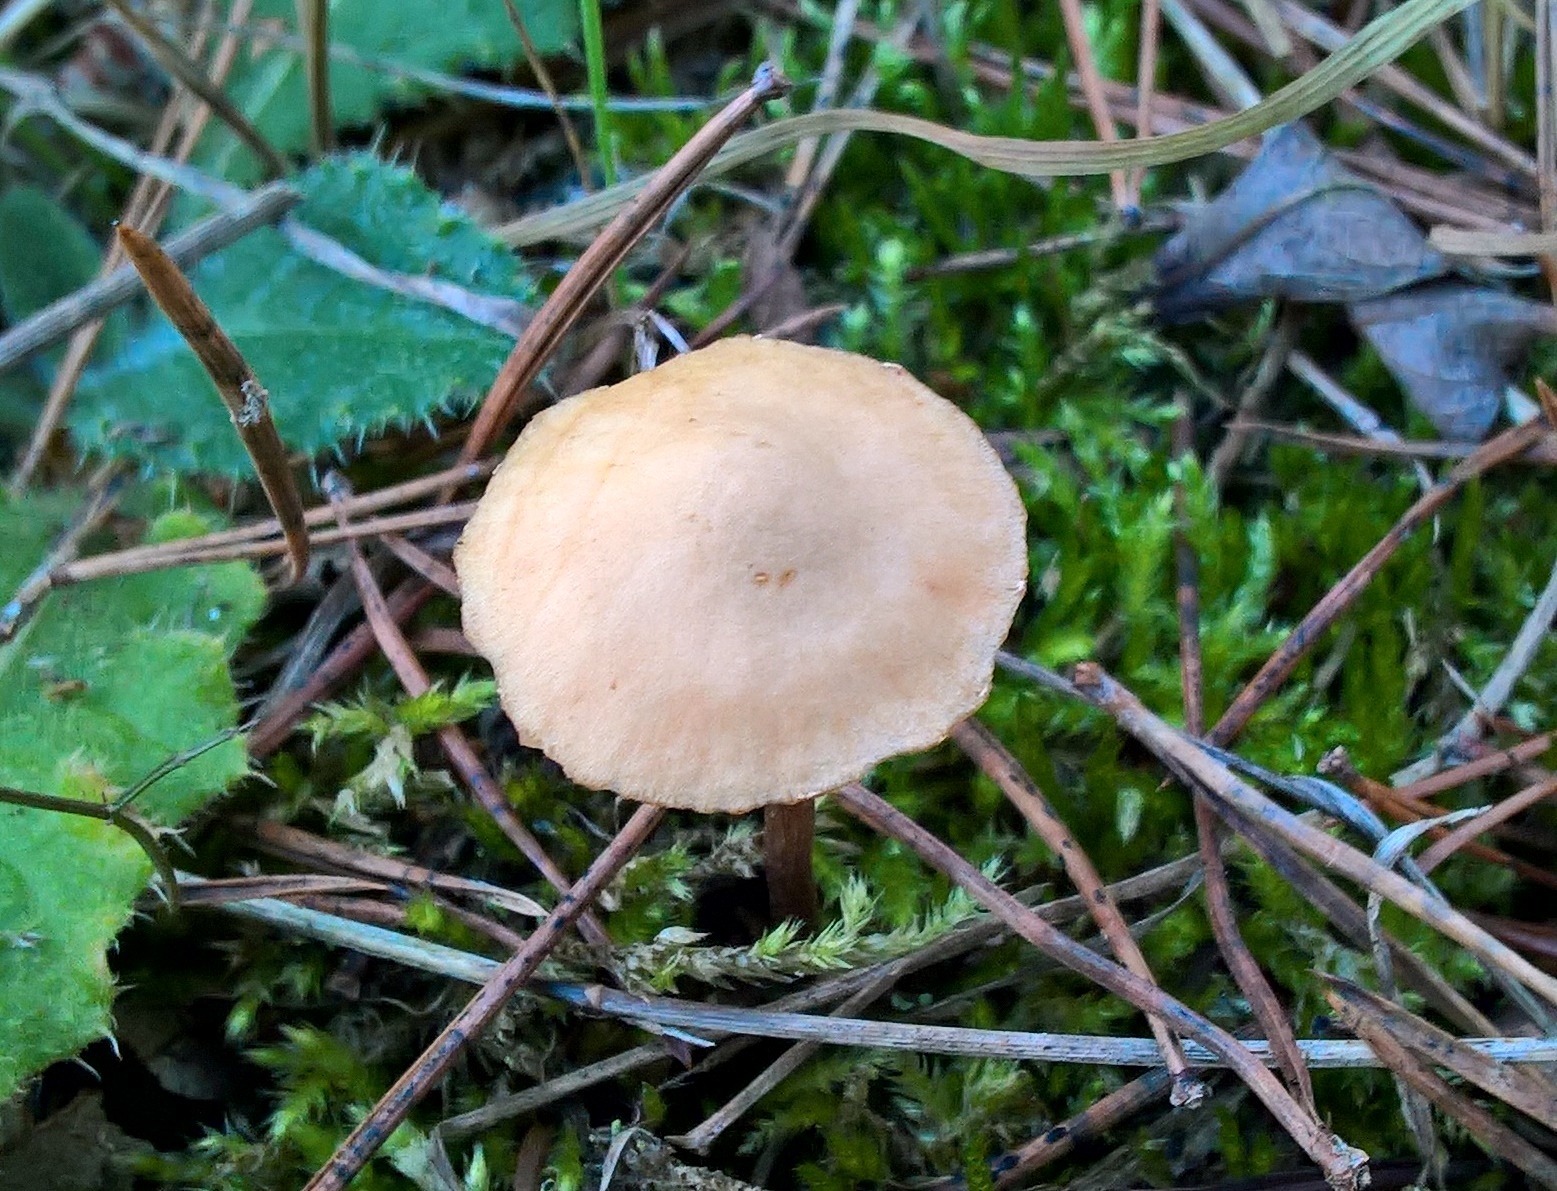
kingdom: Fungi
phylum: Basidiomycota
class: Agaricomycetes
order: Agaricales
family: Hymenogastraceae
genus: Galerina
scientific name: Galerina
